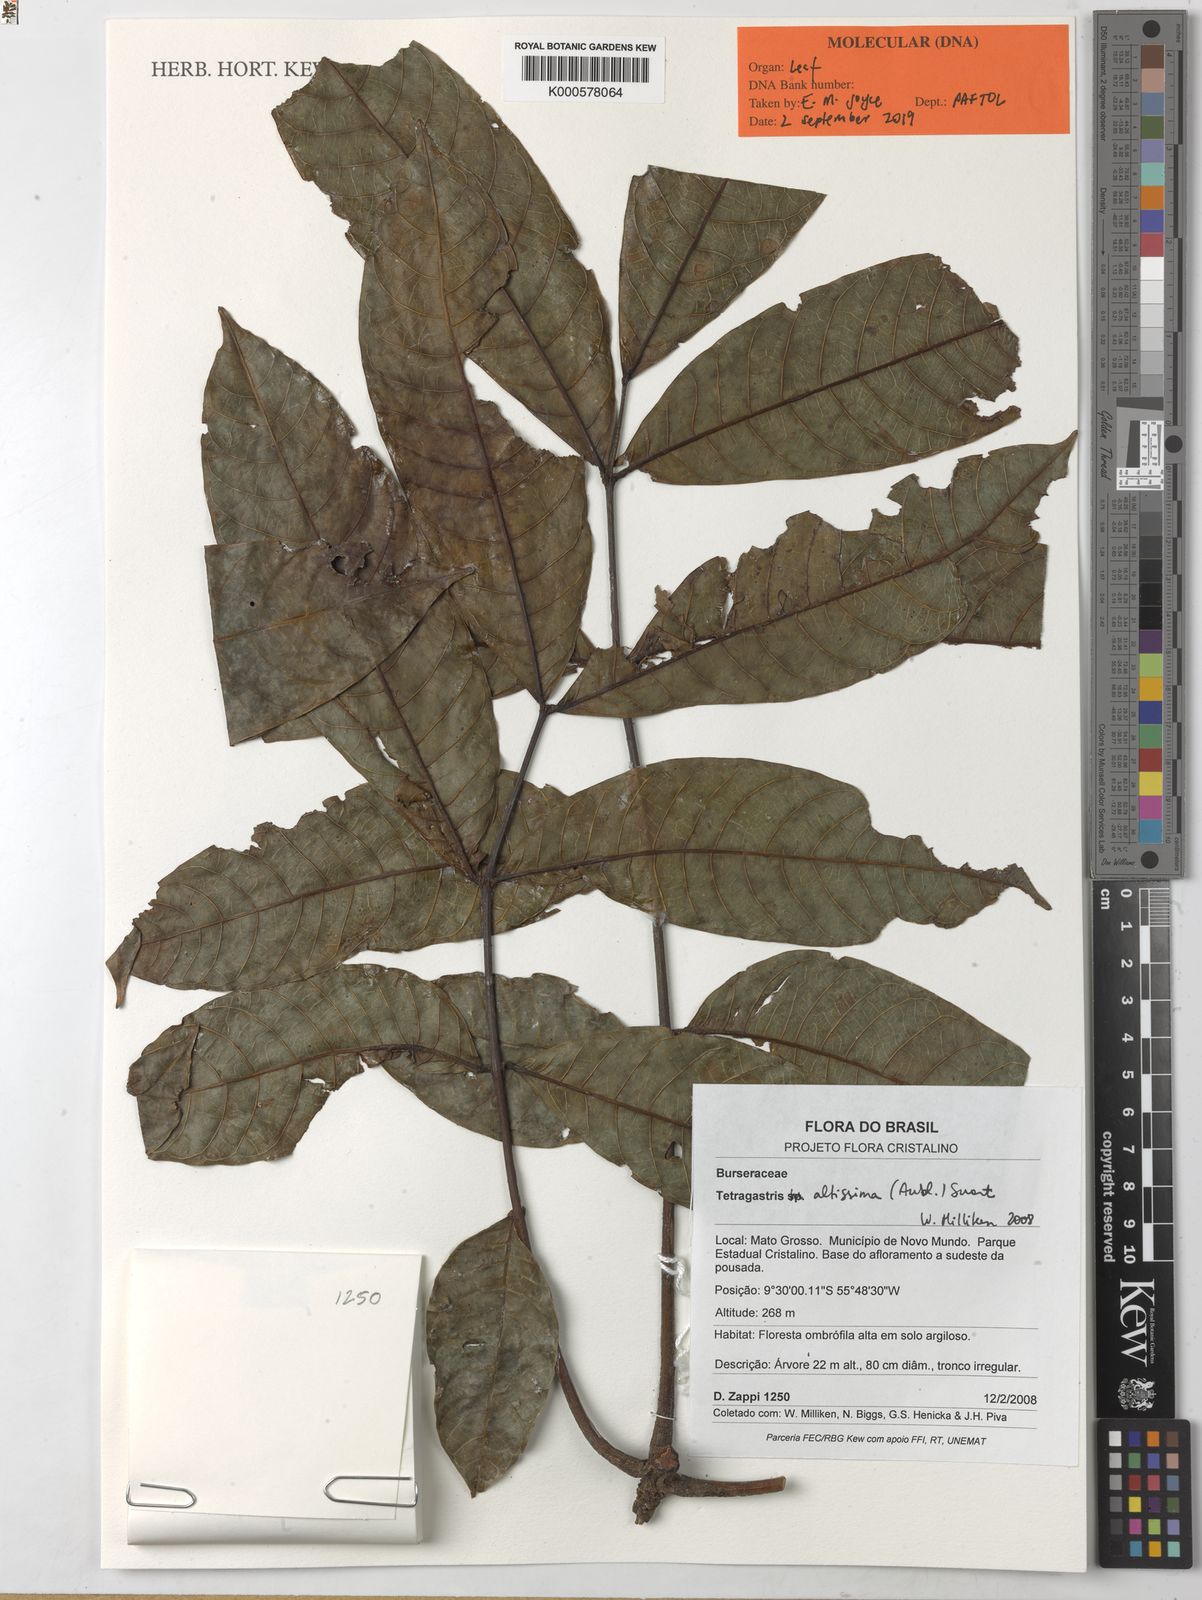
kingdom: Plantae
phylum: Tracheophyta
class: Magnoliopsida
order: Sapindales
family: Burseraceae
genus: Tetragastris
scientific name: Tetragastris altissima
